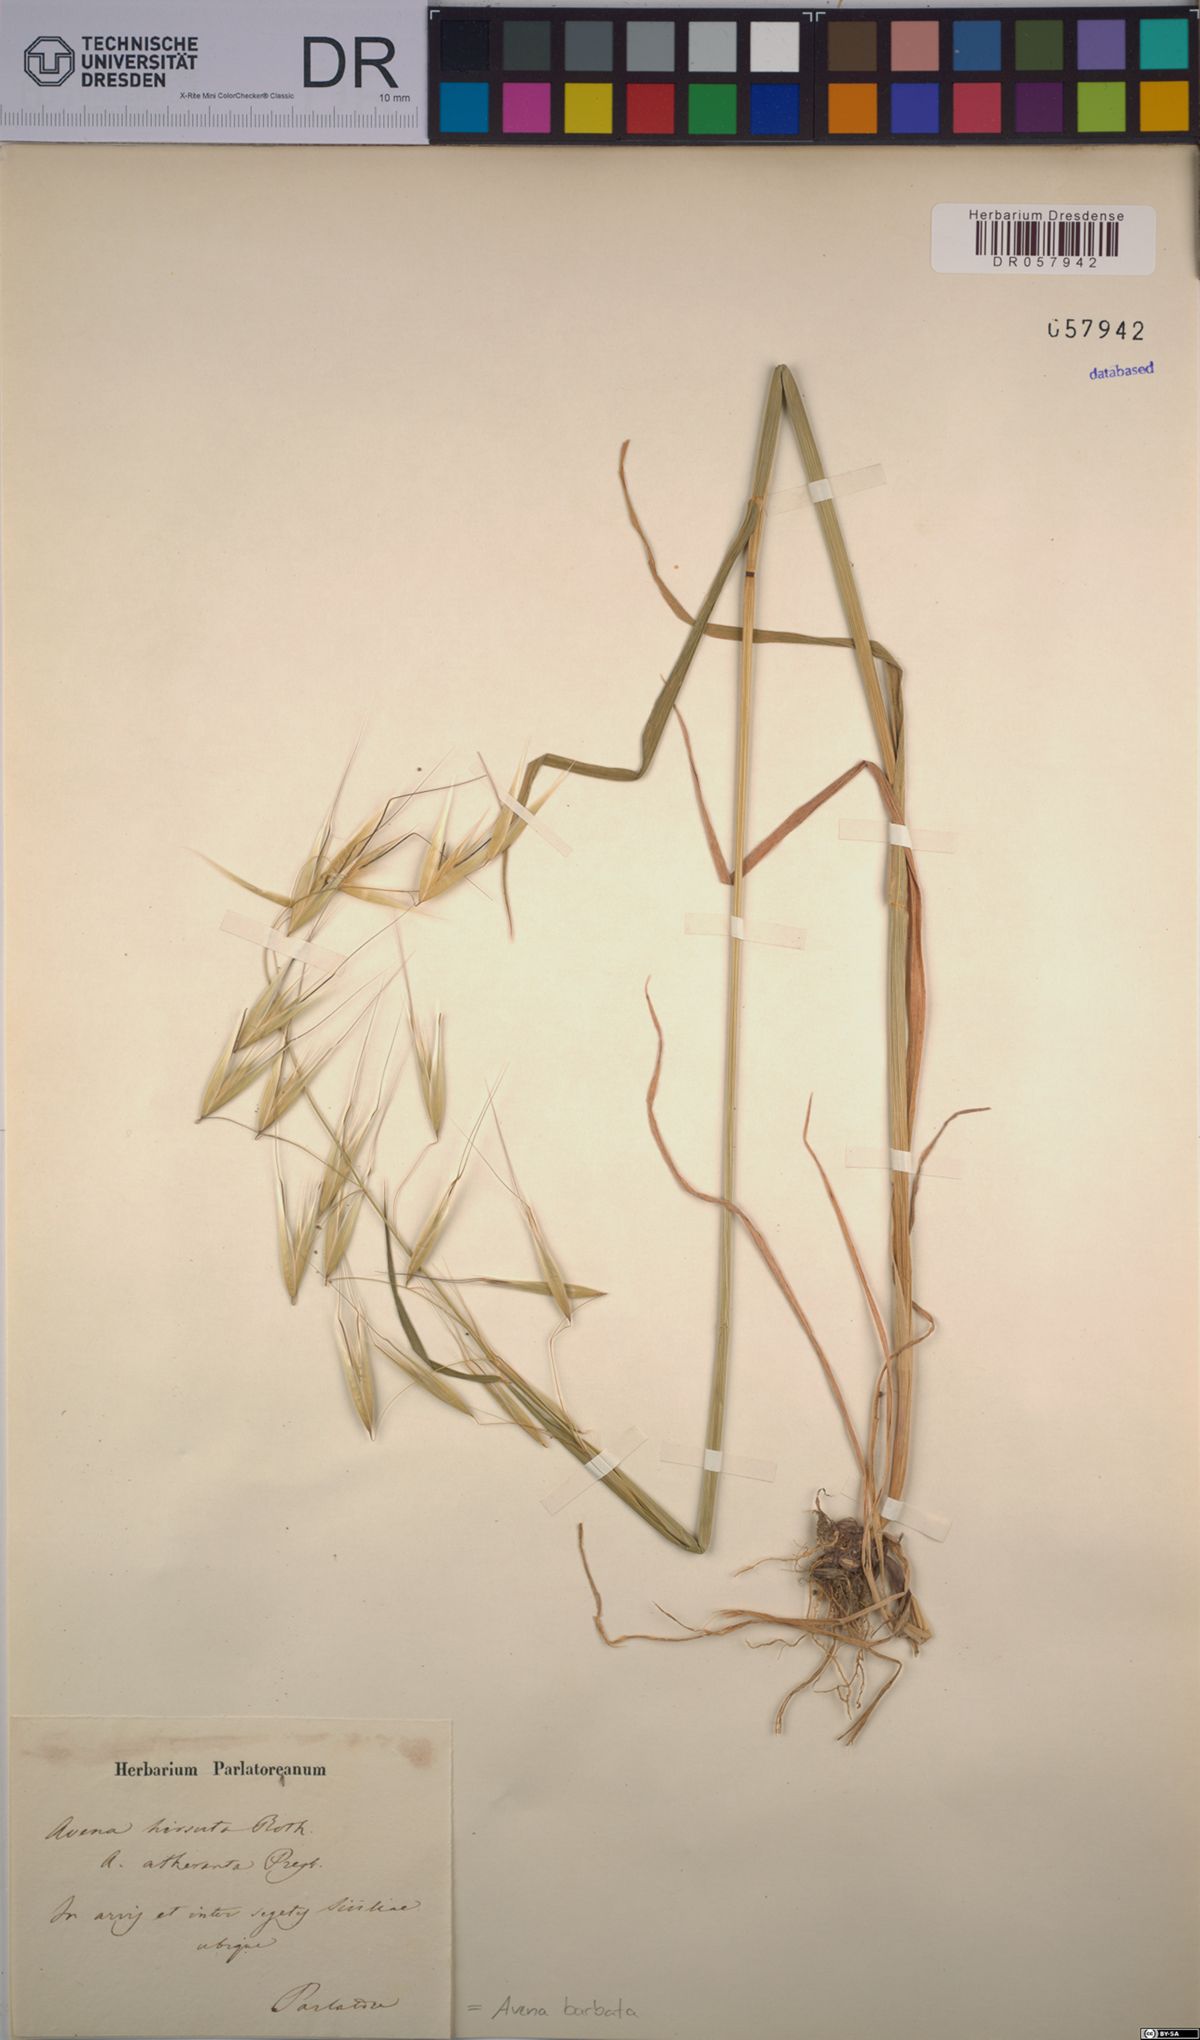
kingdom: Plantae
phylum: Tracheophyta
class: Liliopsida
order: Poales
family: Poaceae
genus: Avena
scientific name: Avena barbata
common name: Slender oat
